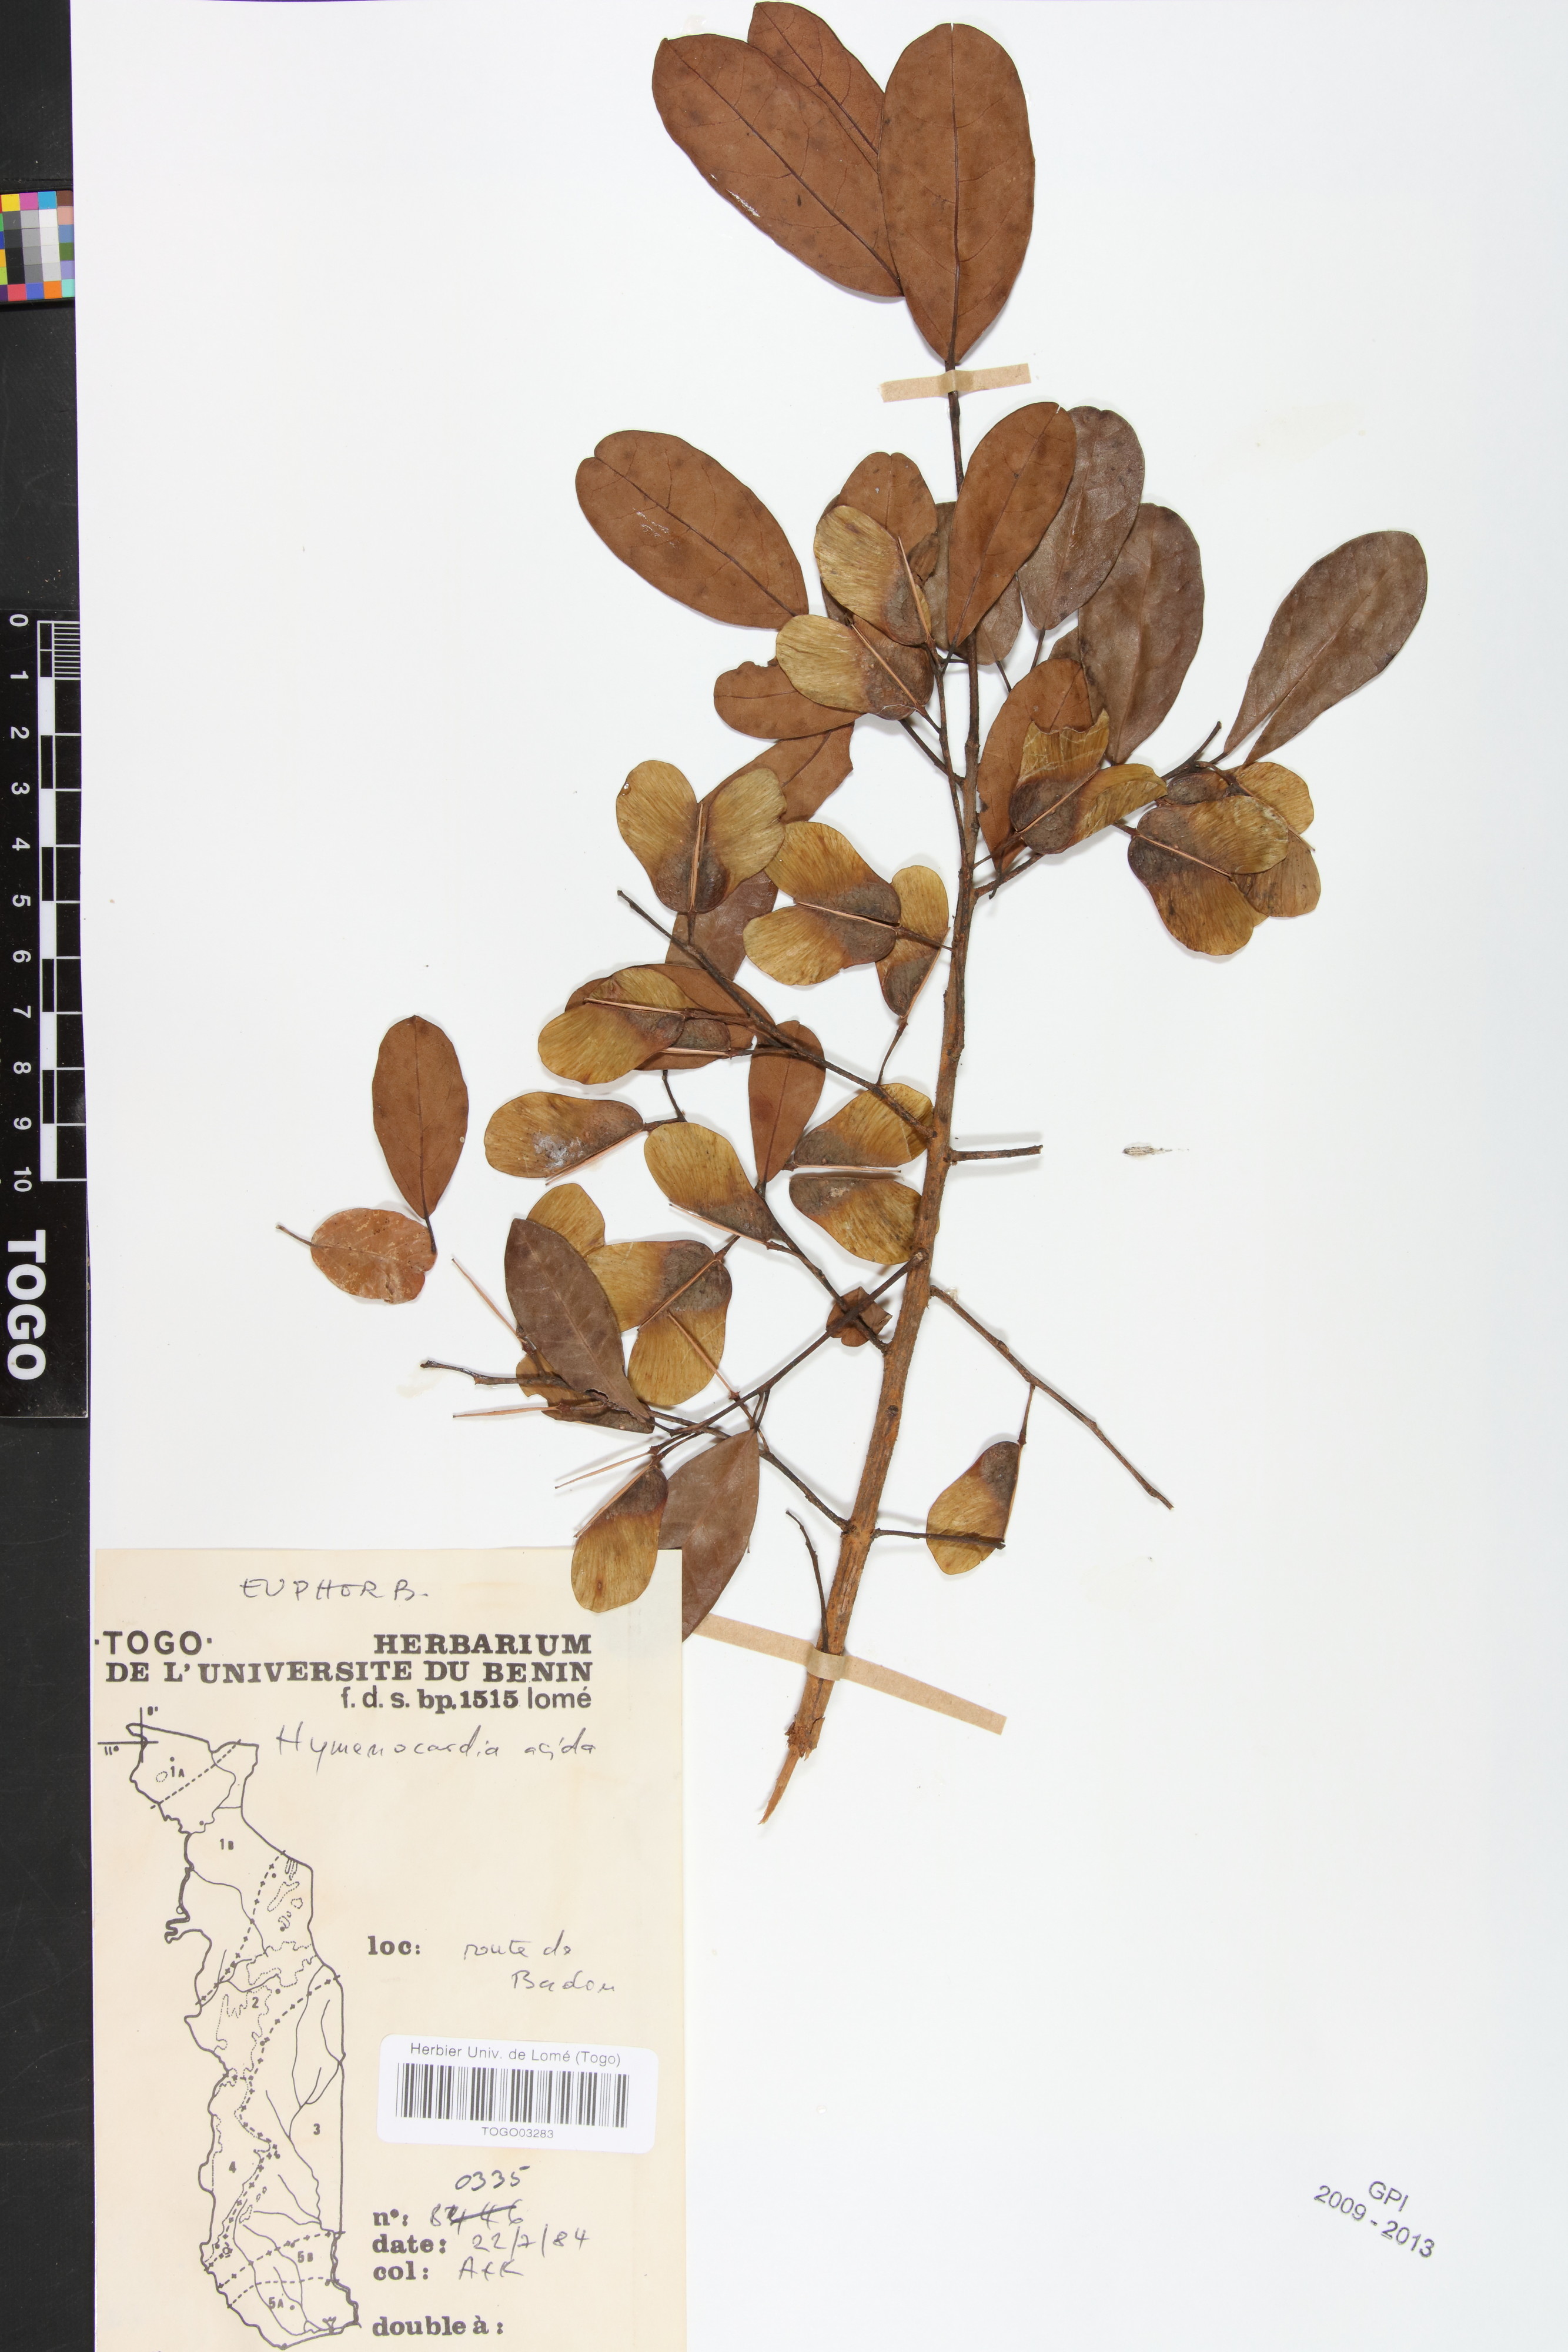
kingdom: Plantae
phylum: Tracheophyta
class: Magnoliopsida
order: Malpighiales
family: Phyllanthaceae
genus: Hymenocardia
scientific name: Hymenocardia acida
